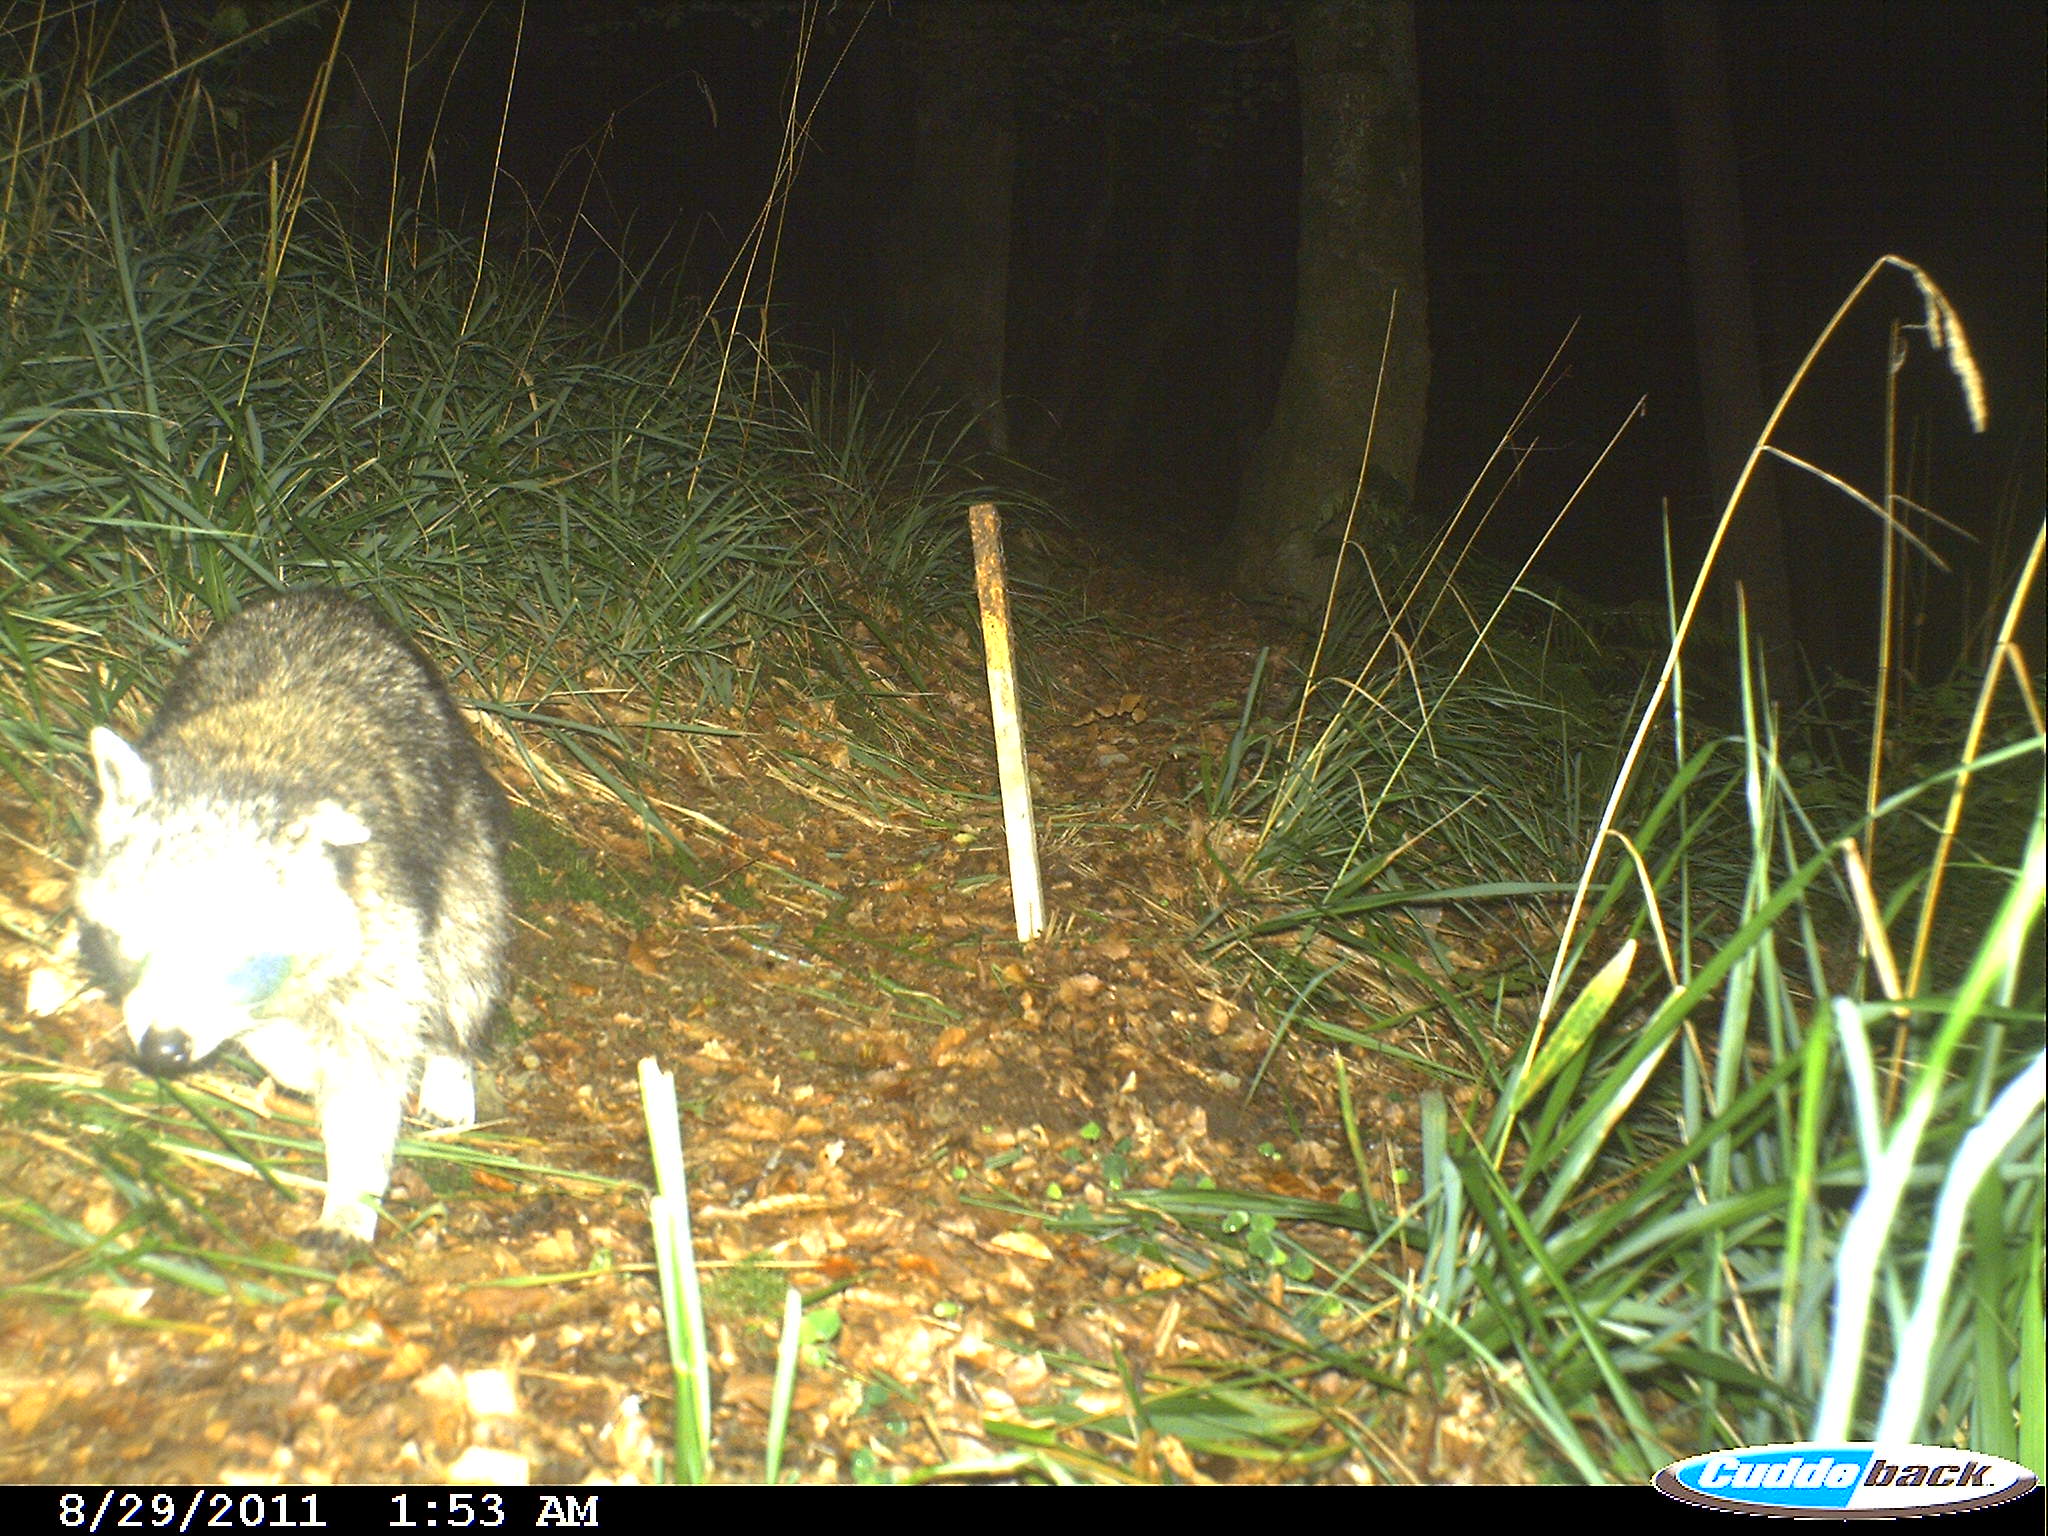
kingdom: Animalia
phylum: Chordata
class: Mammalia
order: Carnivora
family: Procyonidae
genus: Procyon
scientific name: Procyon lotor
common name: Raccoon
